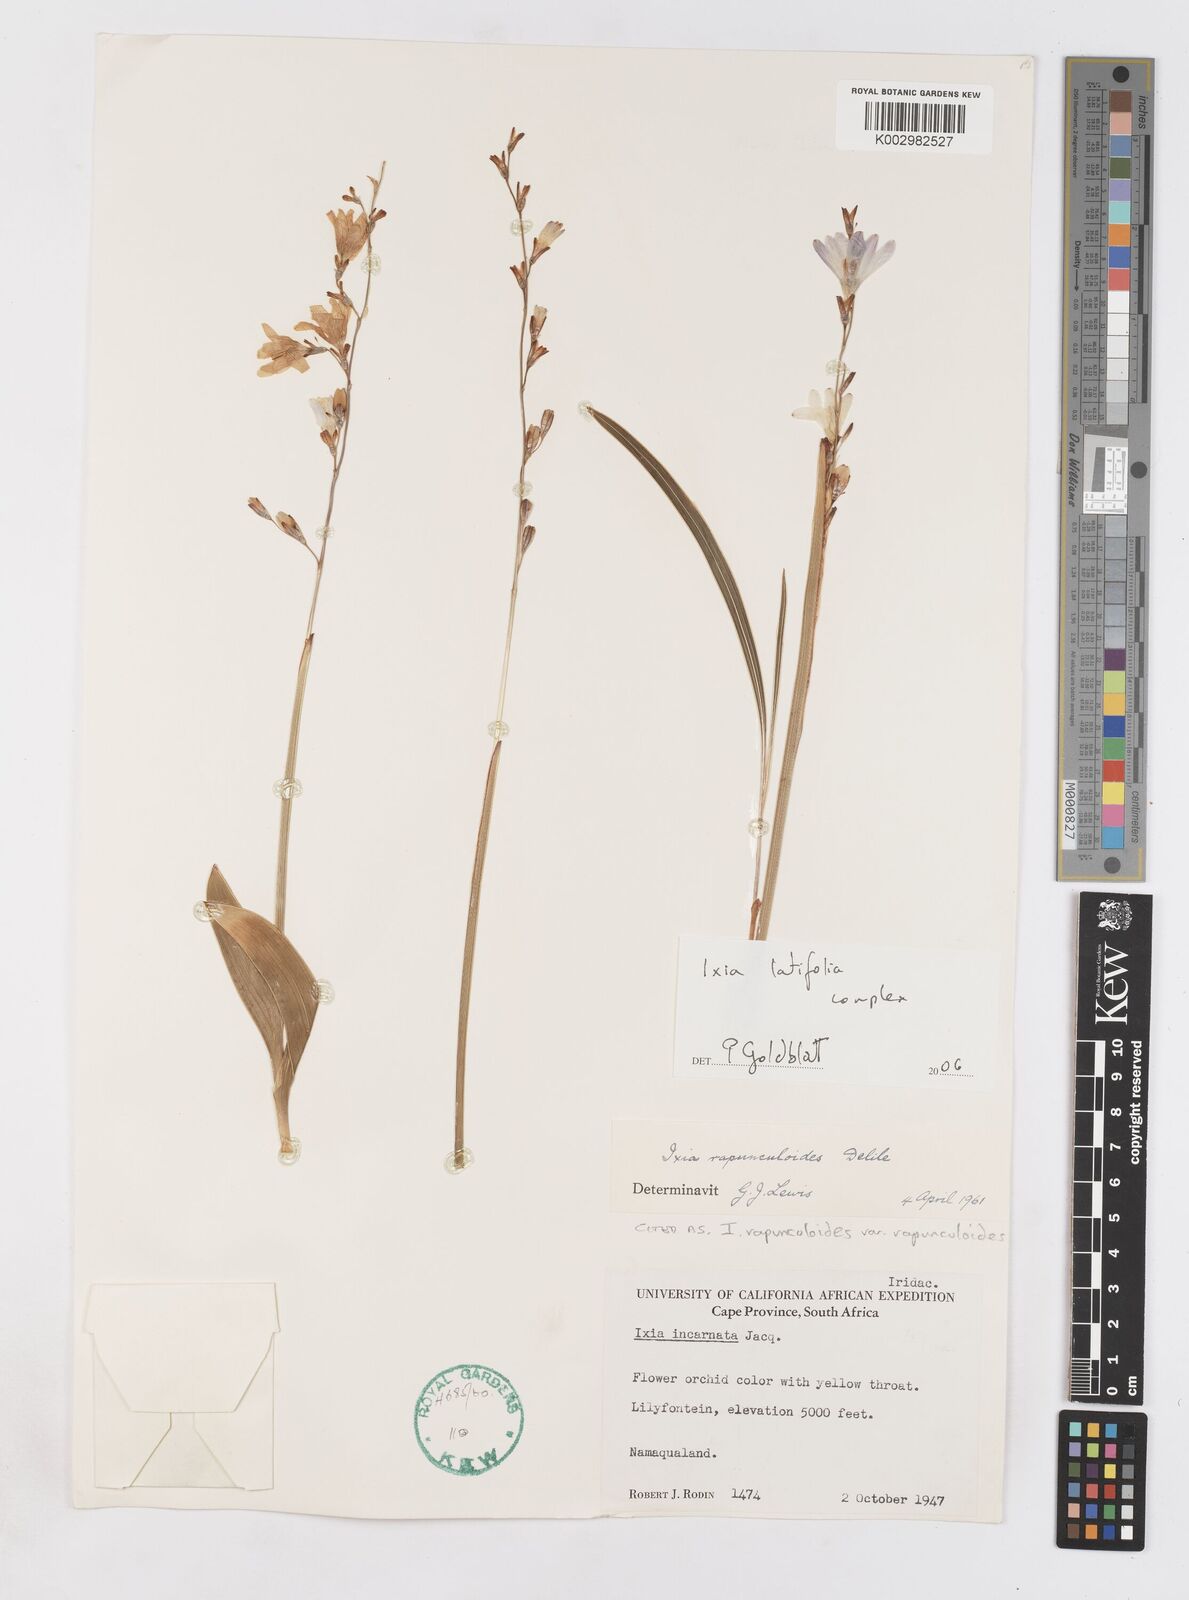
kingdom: Plantae
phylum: Tracheophyta
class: Liliopsida
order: Asparagales
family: Iridaceae
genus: Ixia
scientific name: Ixia latifolia
